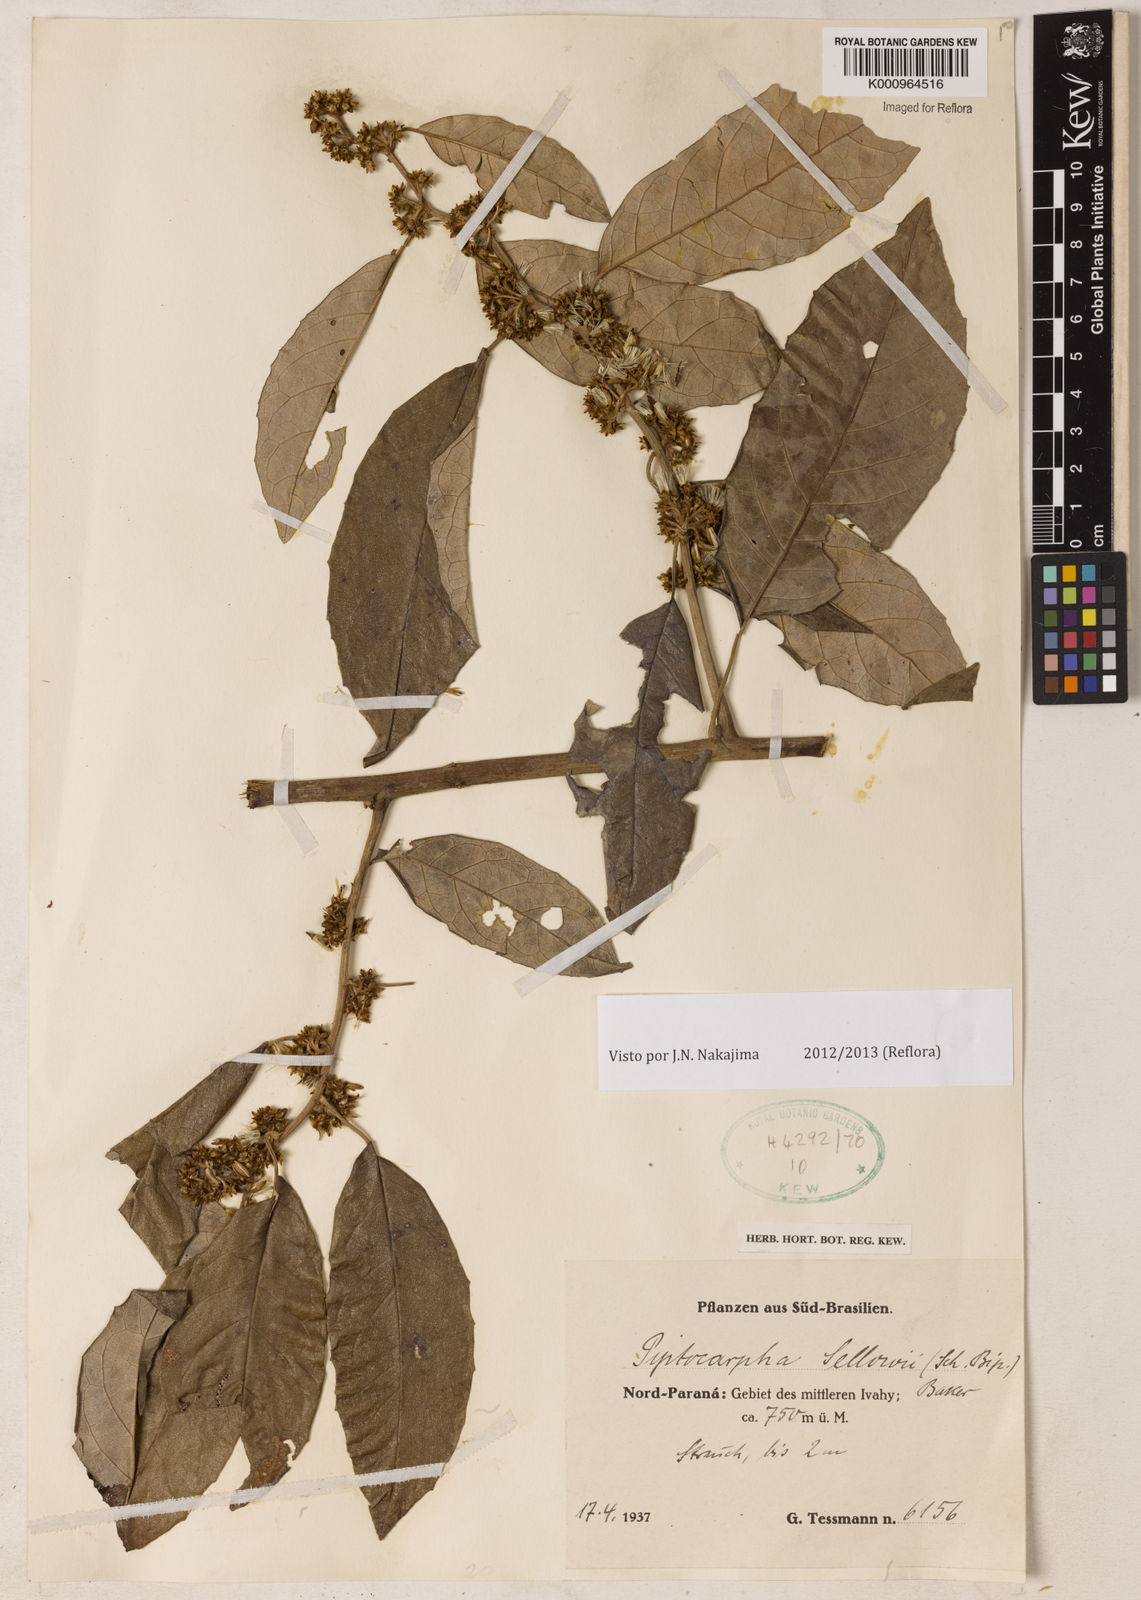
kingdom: Plantae
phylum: Tracheophyta
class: Magnoliopsida
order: Asterales
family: Asteraceae
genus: Piptocarpha
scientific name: Piptocarpha
